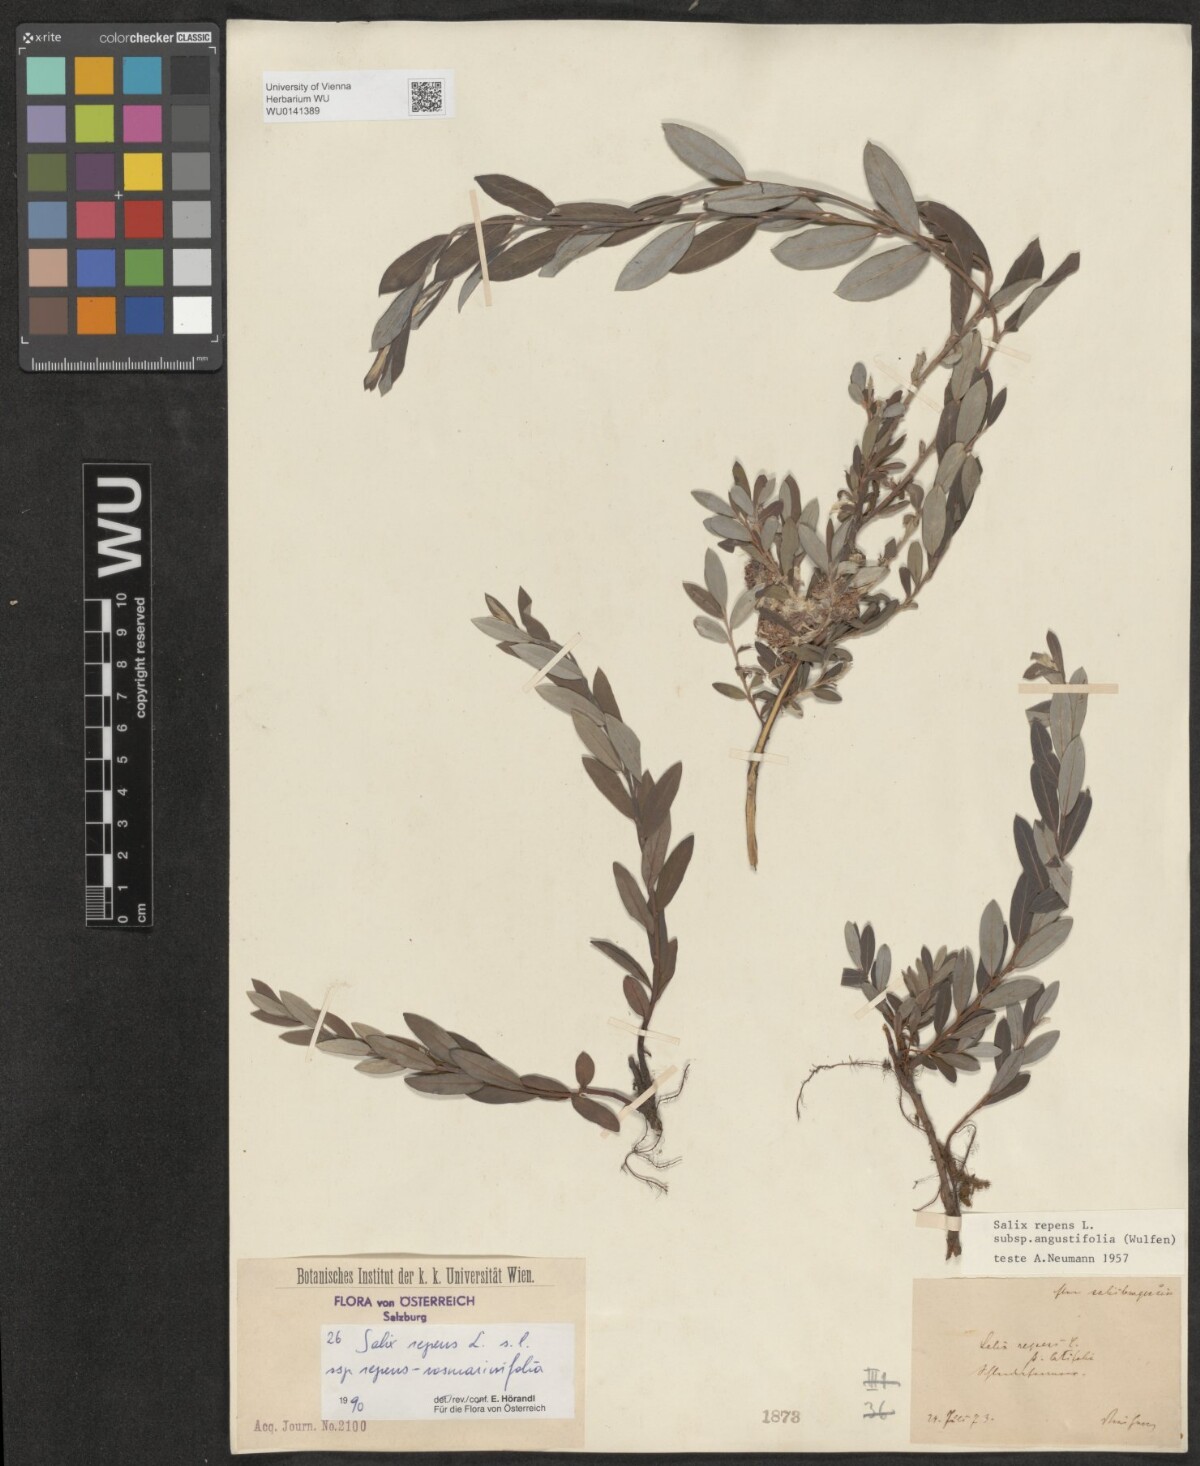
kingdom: Plantae
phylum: Tracheophyta
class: Magnoliopsida
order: Malpighiales
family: Salicaceae
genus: Salix
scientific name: Salix repens
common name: Creeping willow
